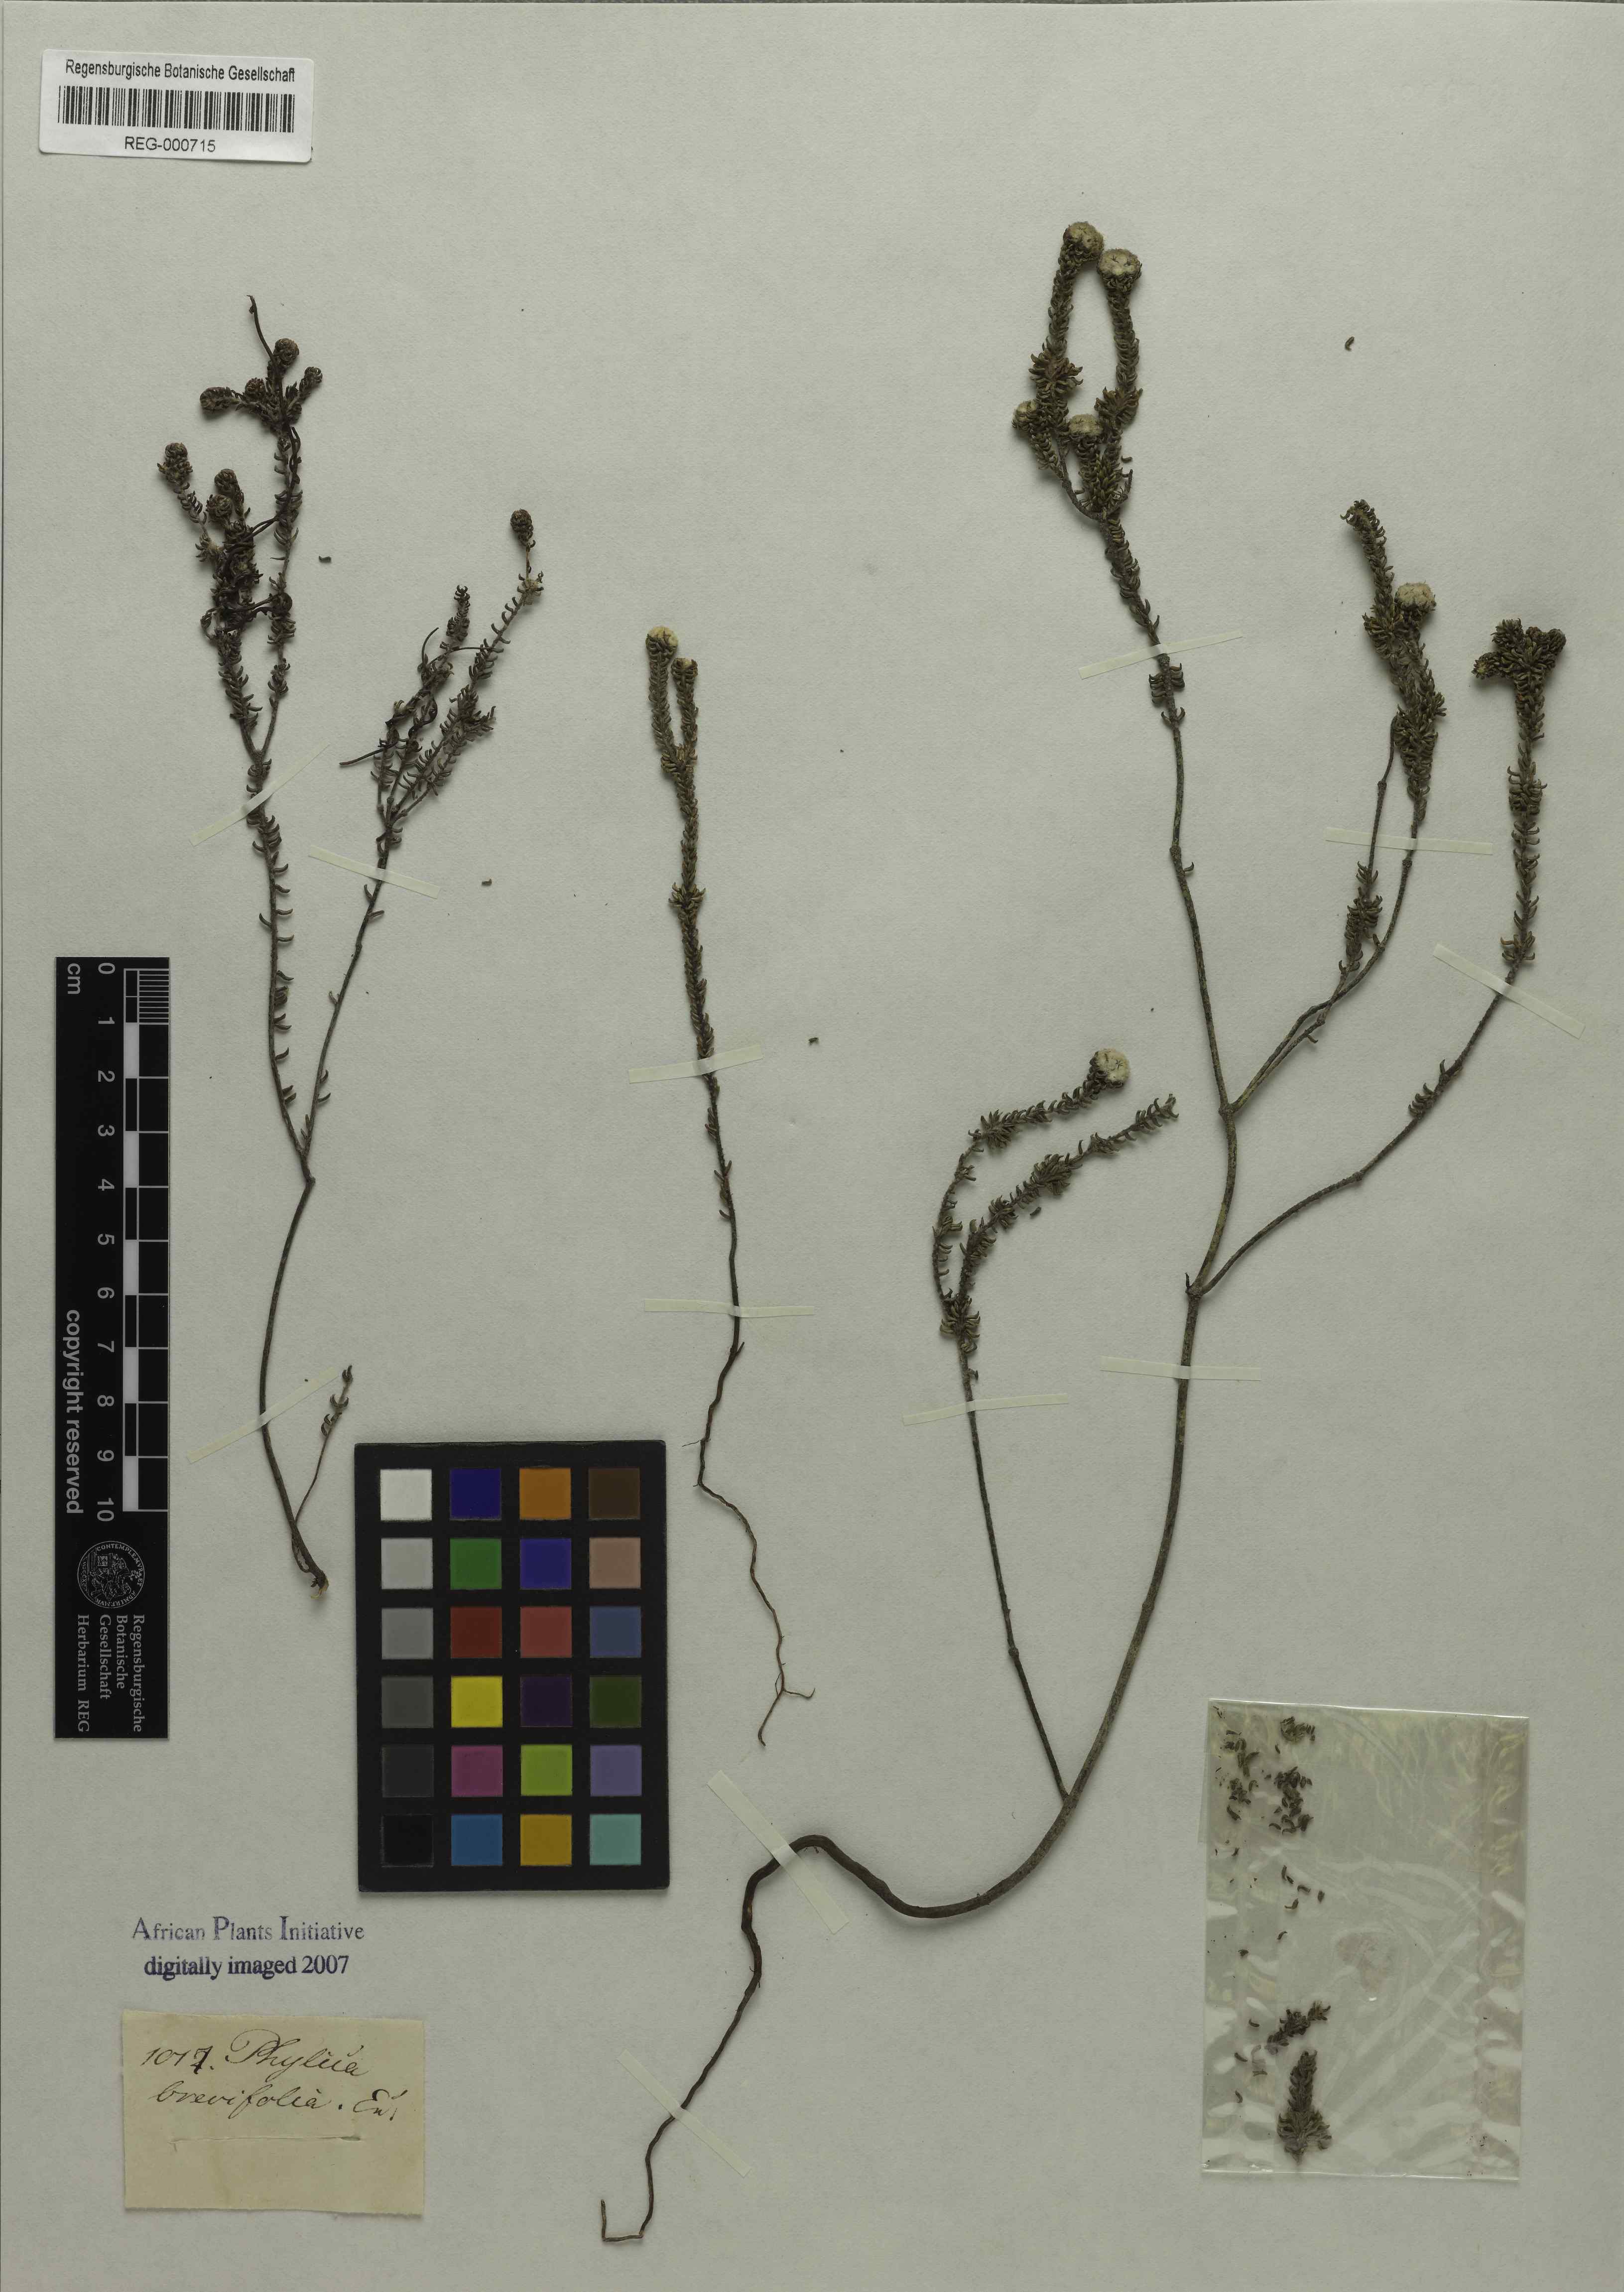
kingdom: Plantae
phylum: Tracheophyta
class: Magnoliopsida
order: Rosales
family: Rhamnaceae
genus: Phylica
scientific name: Phylica brevifolia
